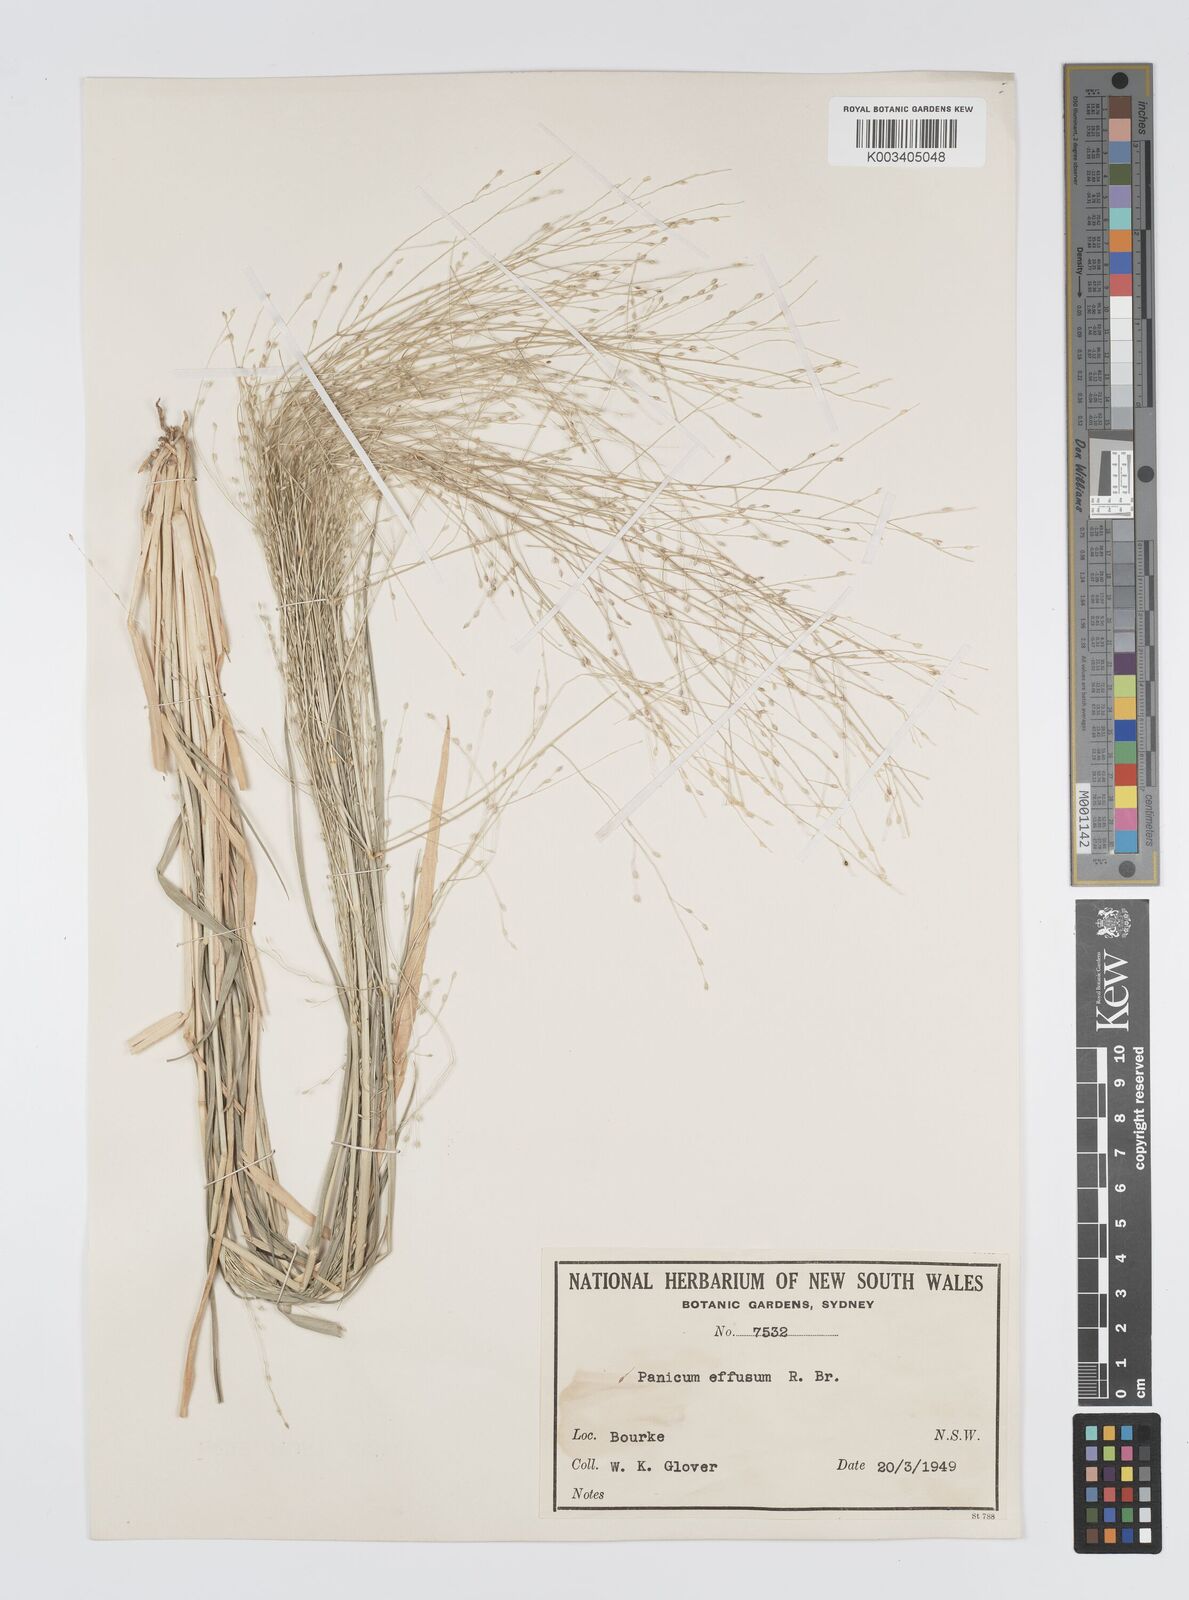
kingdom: Plantae
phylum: Tracheophyta
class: Liliopsida
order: Poales
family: Poaceae
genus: Panicum
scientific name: Panicum effusum
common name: Hairy panic grass
